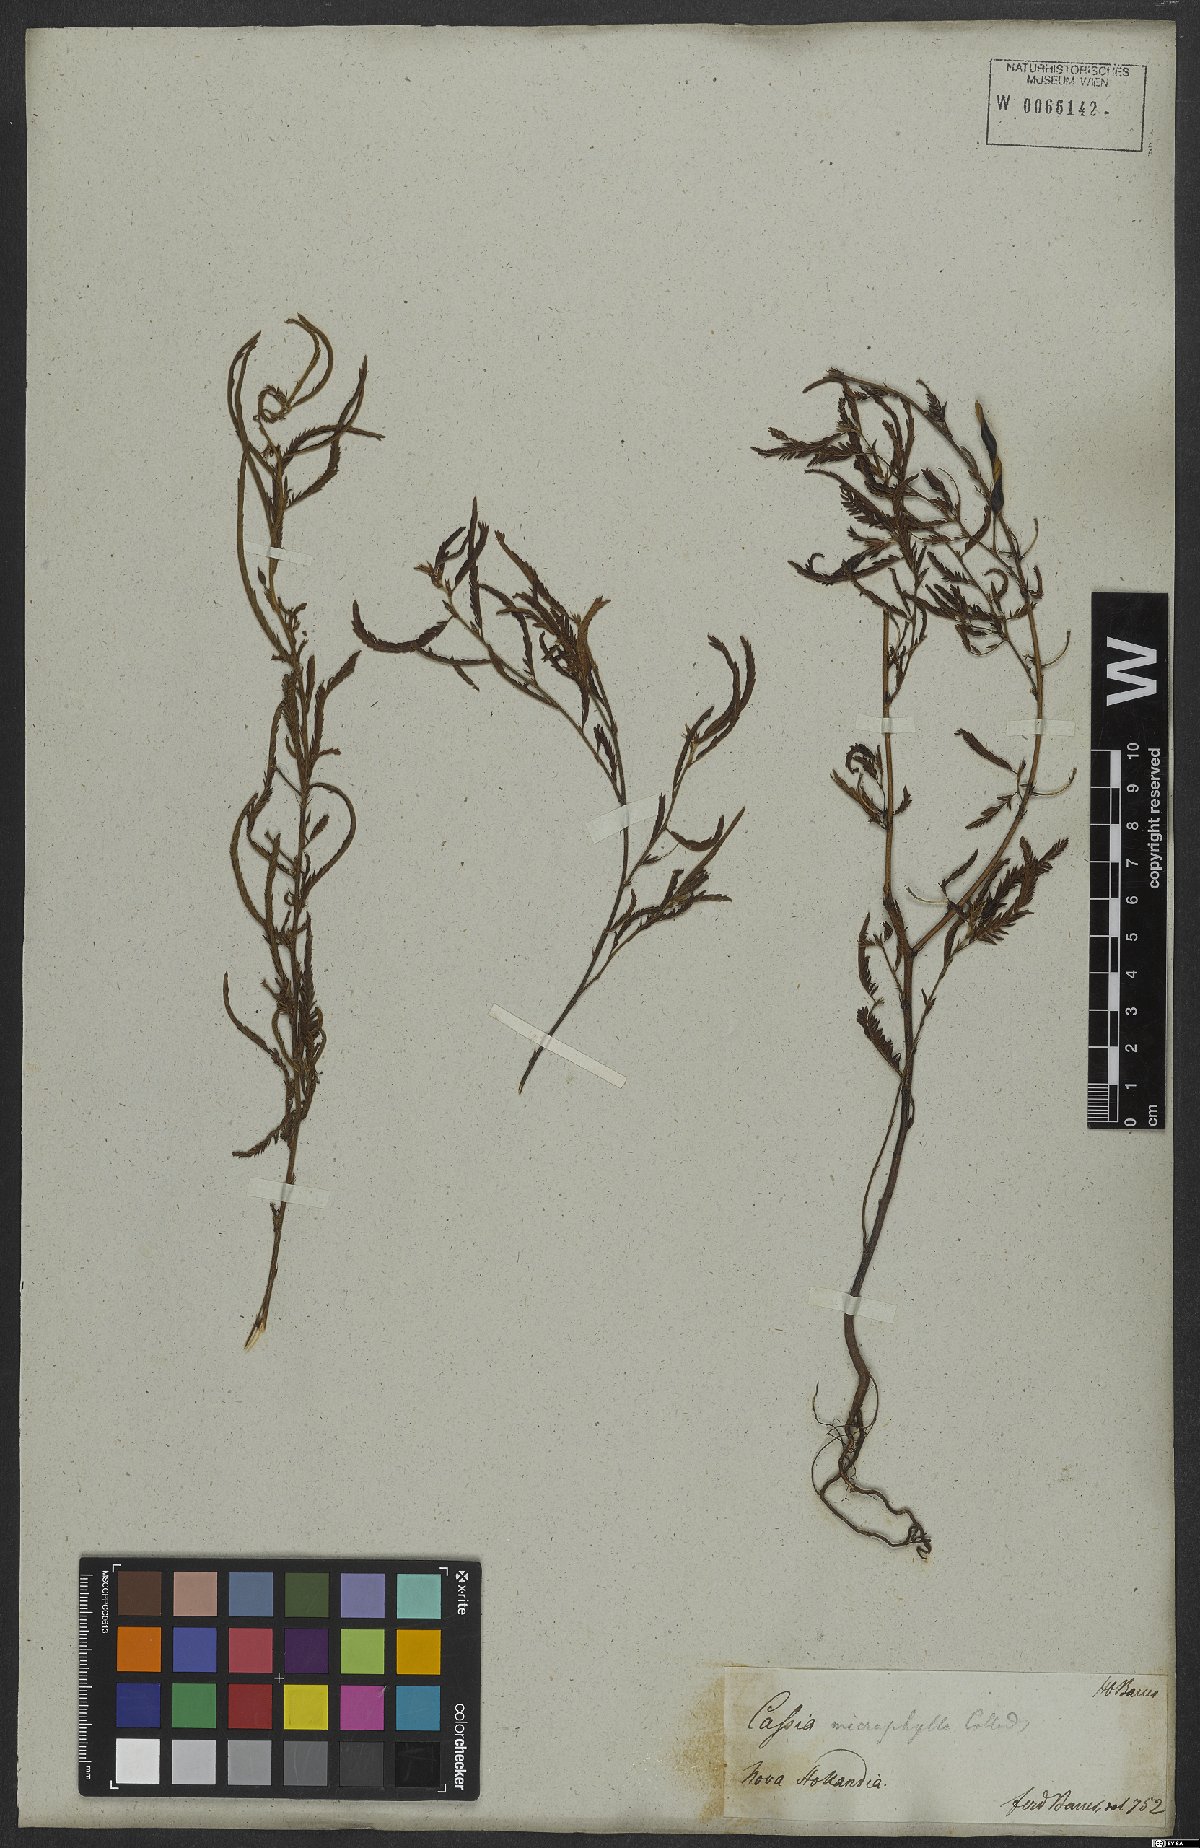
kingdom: Plantae
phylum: Tracheophyta
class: Magnoliopsida
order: Fabales
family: Fabaceae
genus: Chamaecrista
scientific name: Chamaecrista mimosoides
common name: Fish-bone cassia
